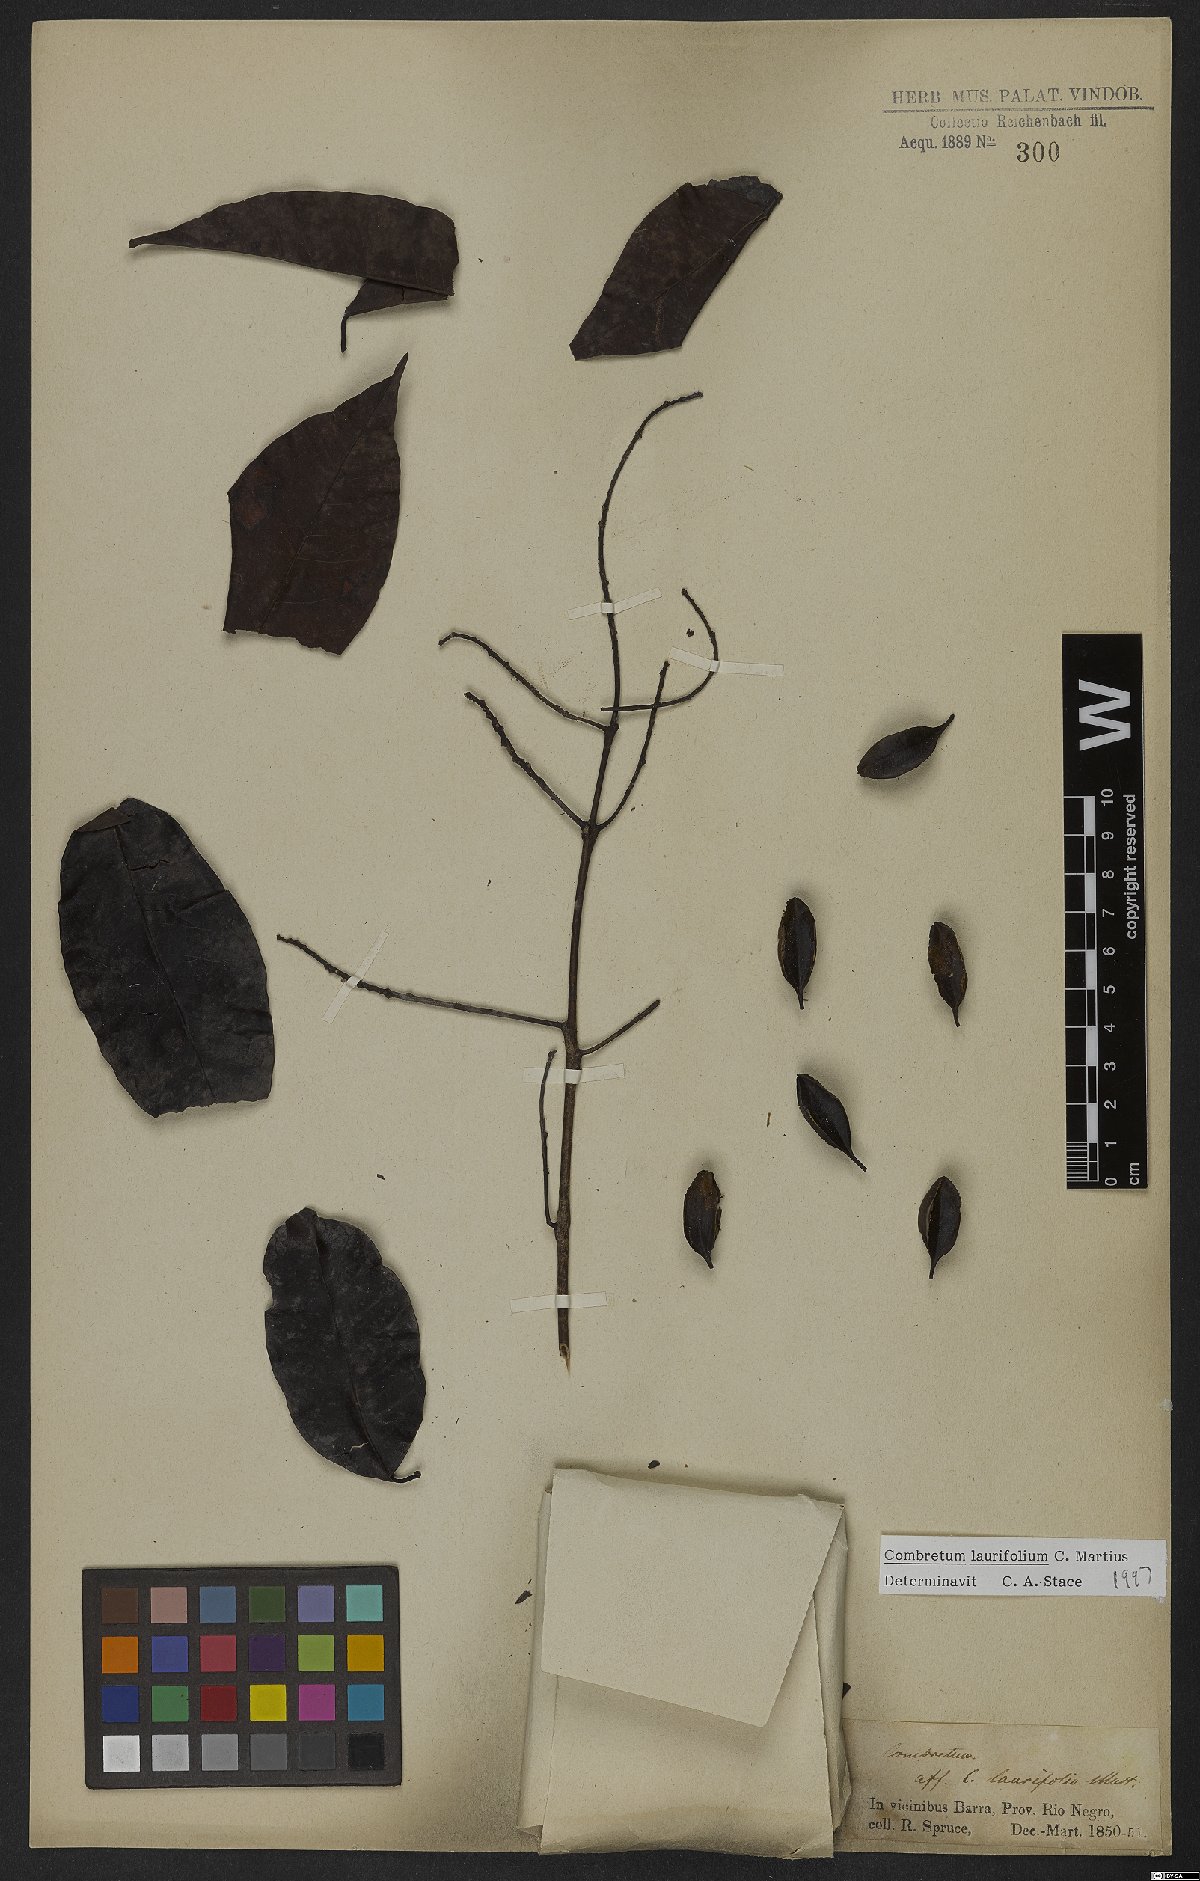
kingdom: Plantae
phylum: Tracheophyta
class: Magnoliopsida
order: Myrtales
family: Combretaceae
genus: Combretum
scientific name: Combretum coriifolium
